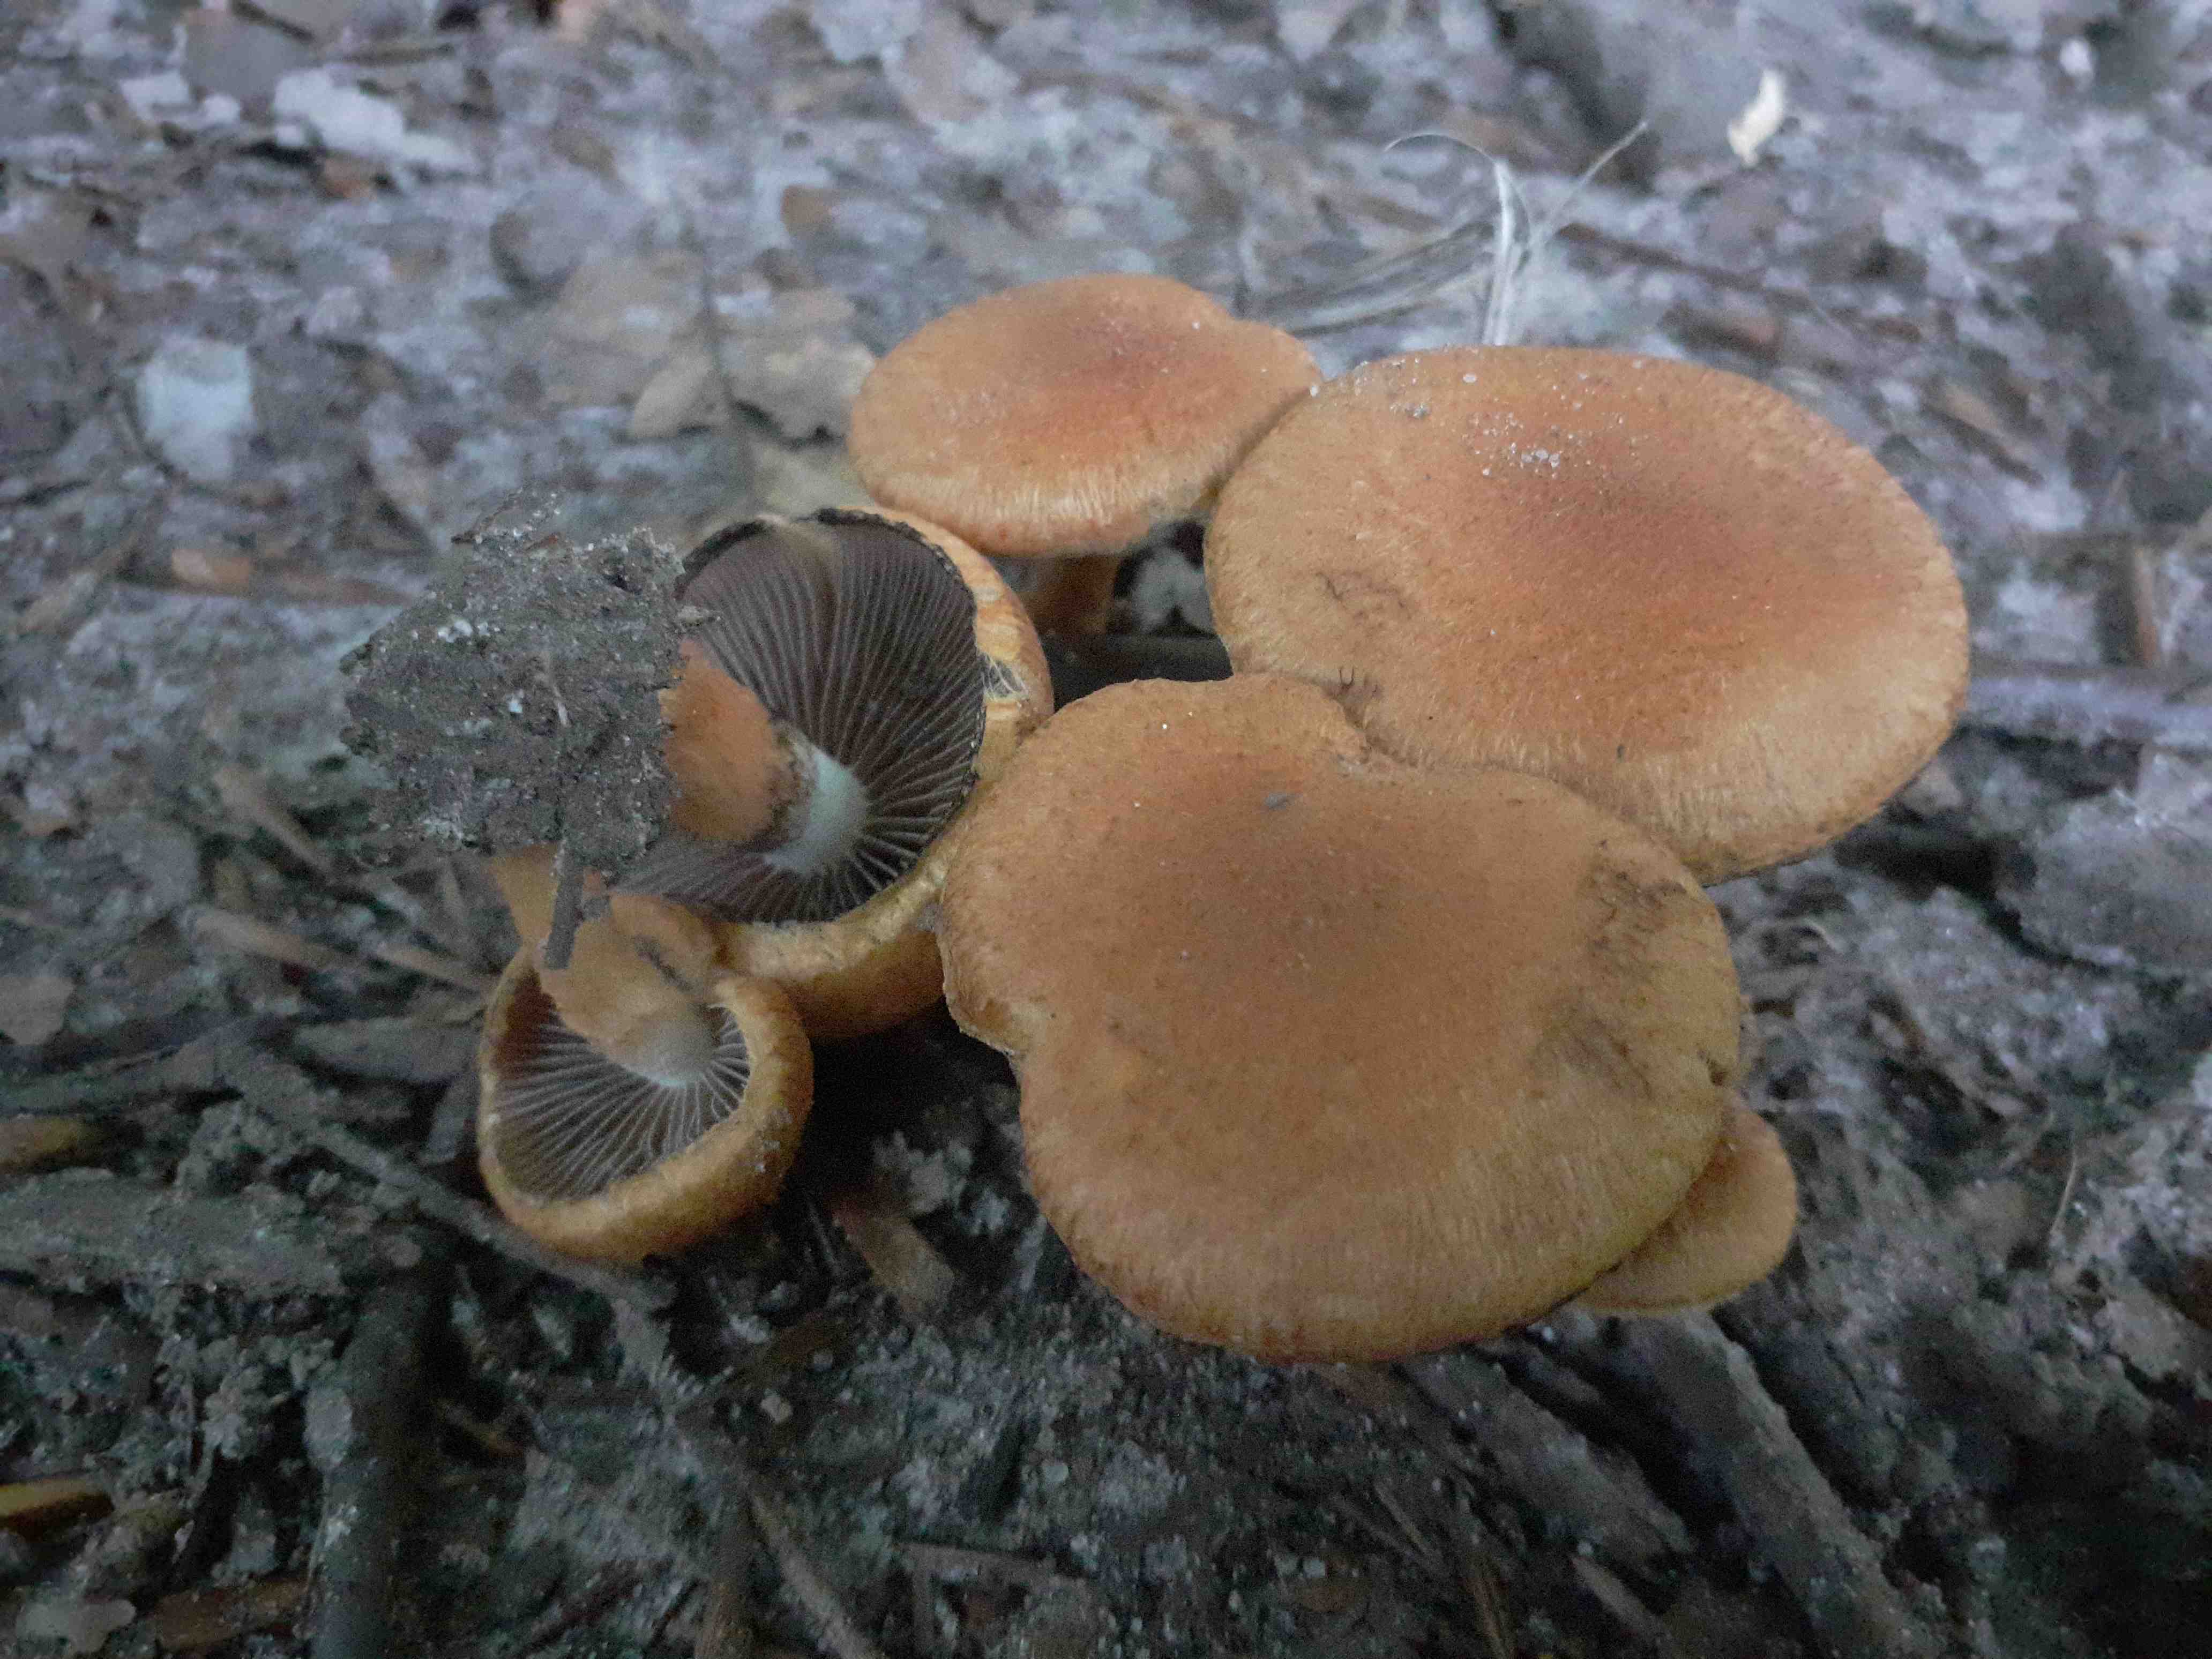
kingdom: Fungi
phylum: Basidiomycota
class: Agaricomycetes
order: Agaricales
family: Psathyrellaceae
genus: Lacrymaria
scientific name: Lacrymaria pyrotricha
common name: ildhåret mørkhat
